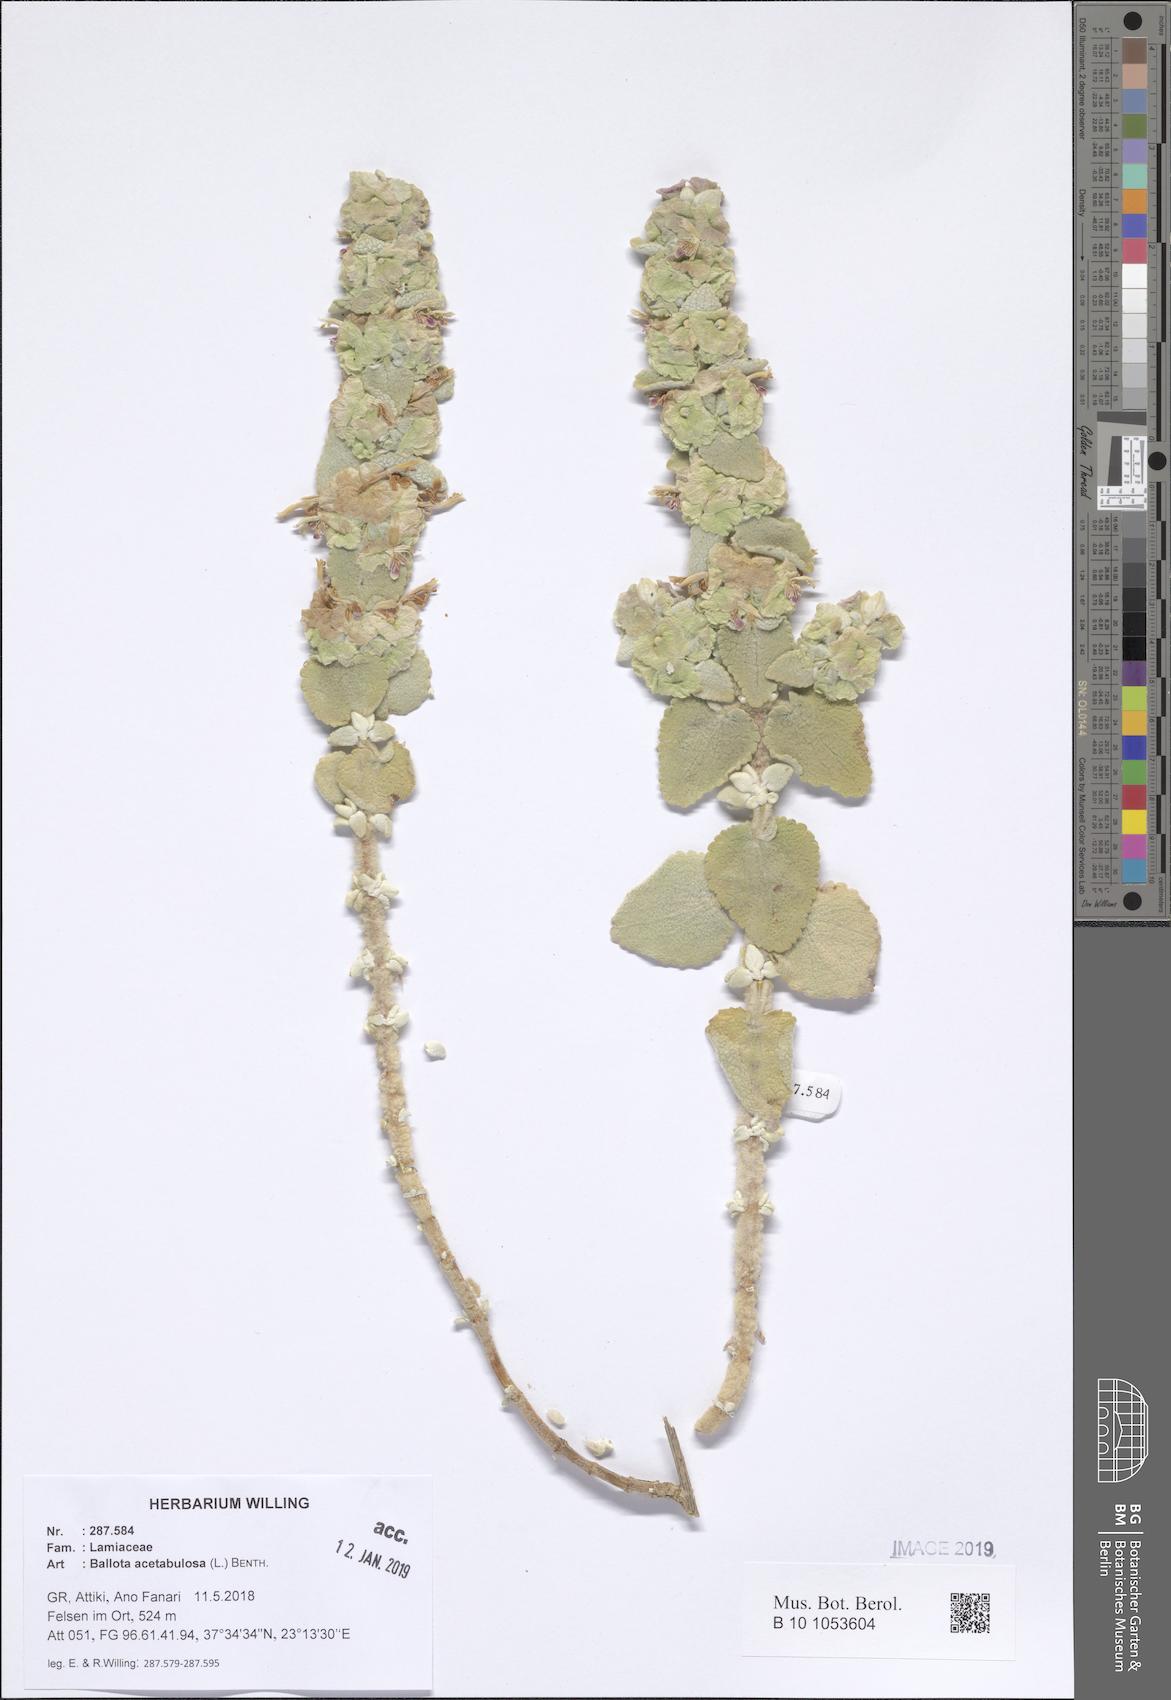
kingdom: Plantae
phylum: Tracheophyta
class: Magnoliopsida
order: Lamiales
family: Lamiaceae
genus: Pseudodictamnus
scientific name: Pseudodictamnus acetabulosus
